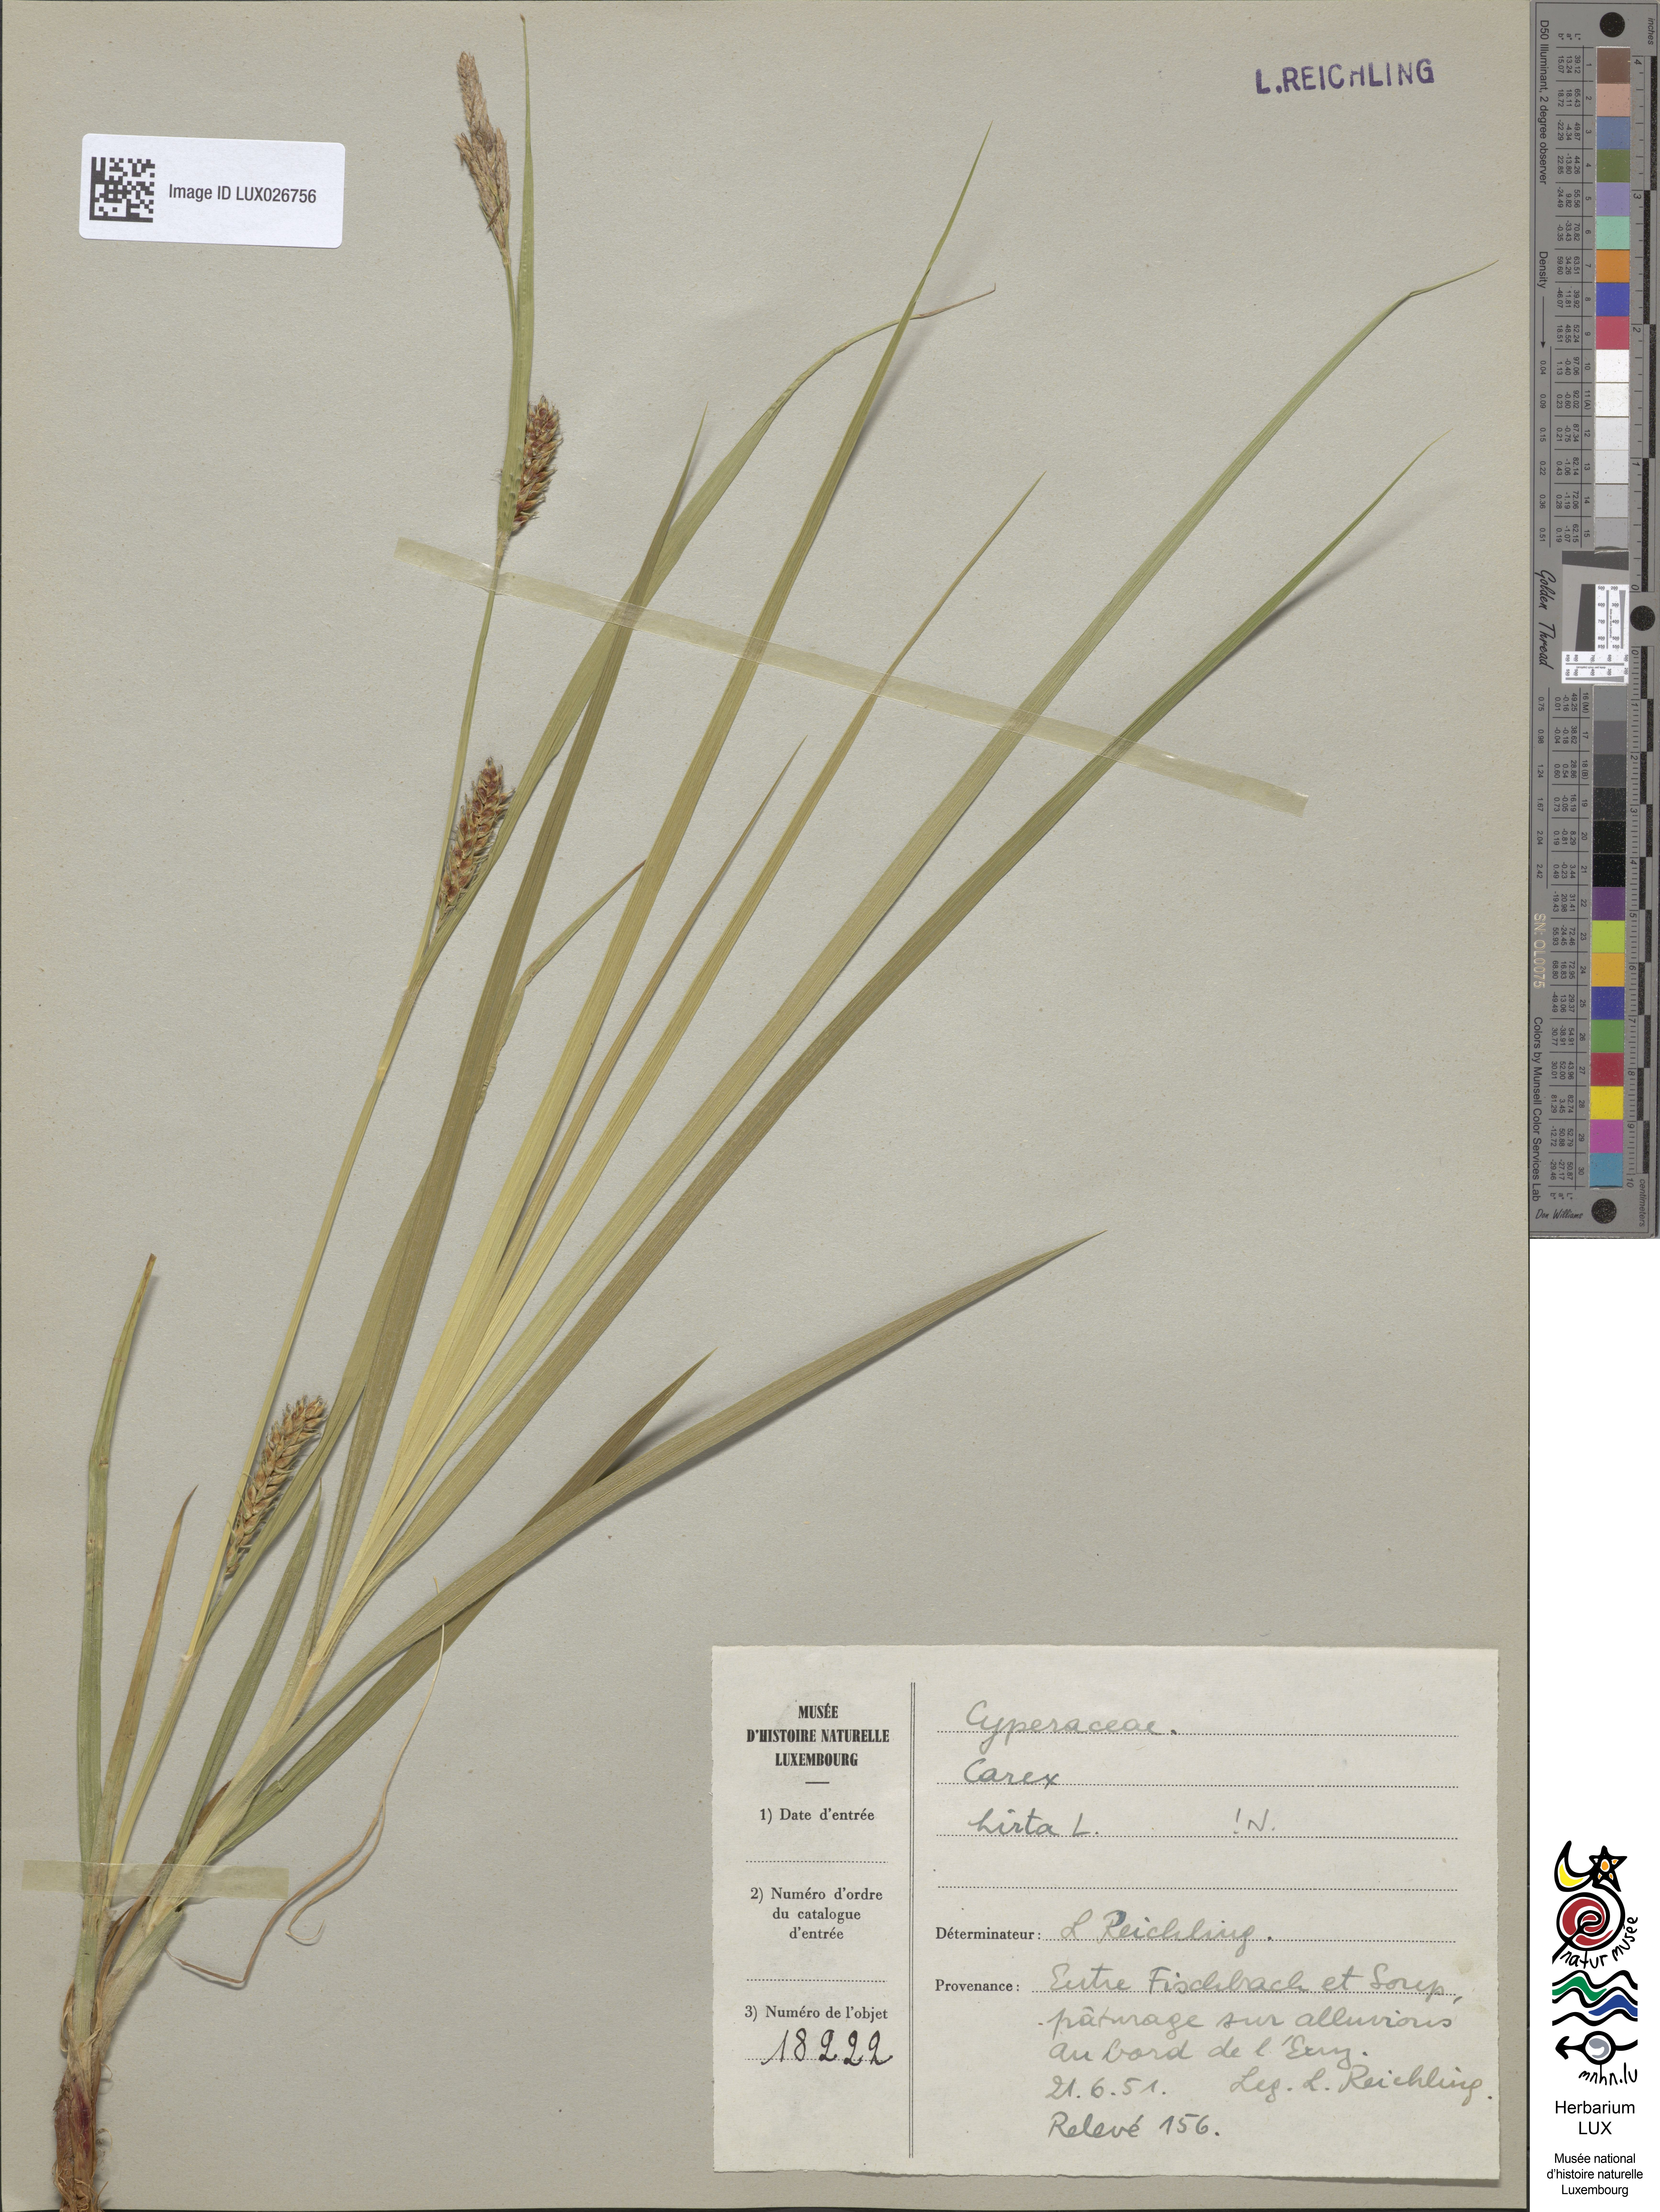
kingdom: Plantae
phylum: Tracheophyta
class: Liliopsida
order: Poales
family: Cyperaceae
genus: Carex
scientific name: Carex hirta
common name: Hairy sedge
